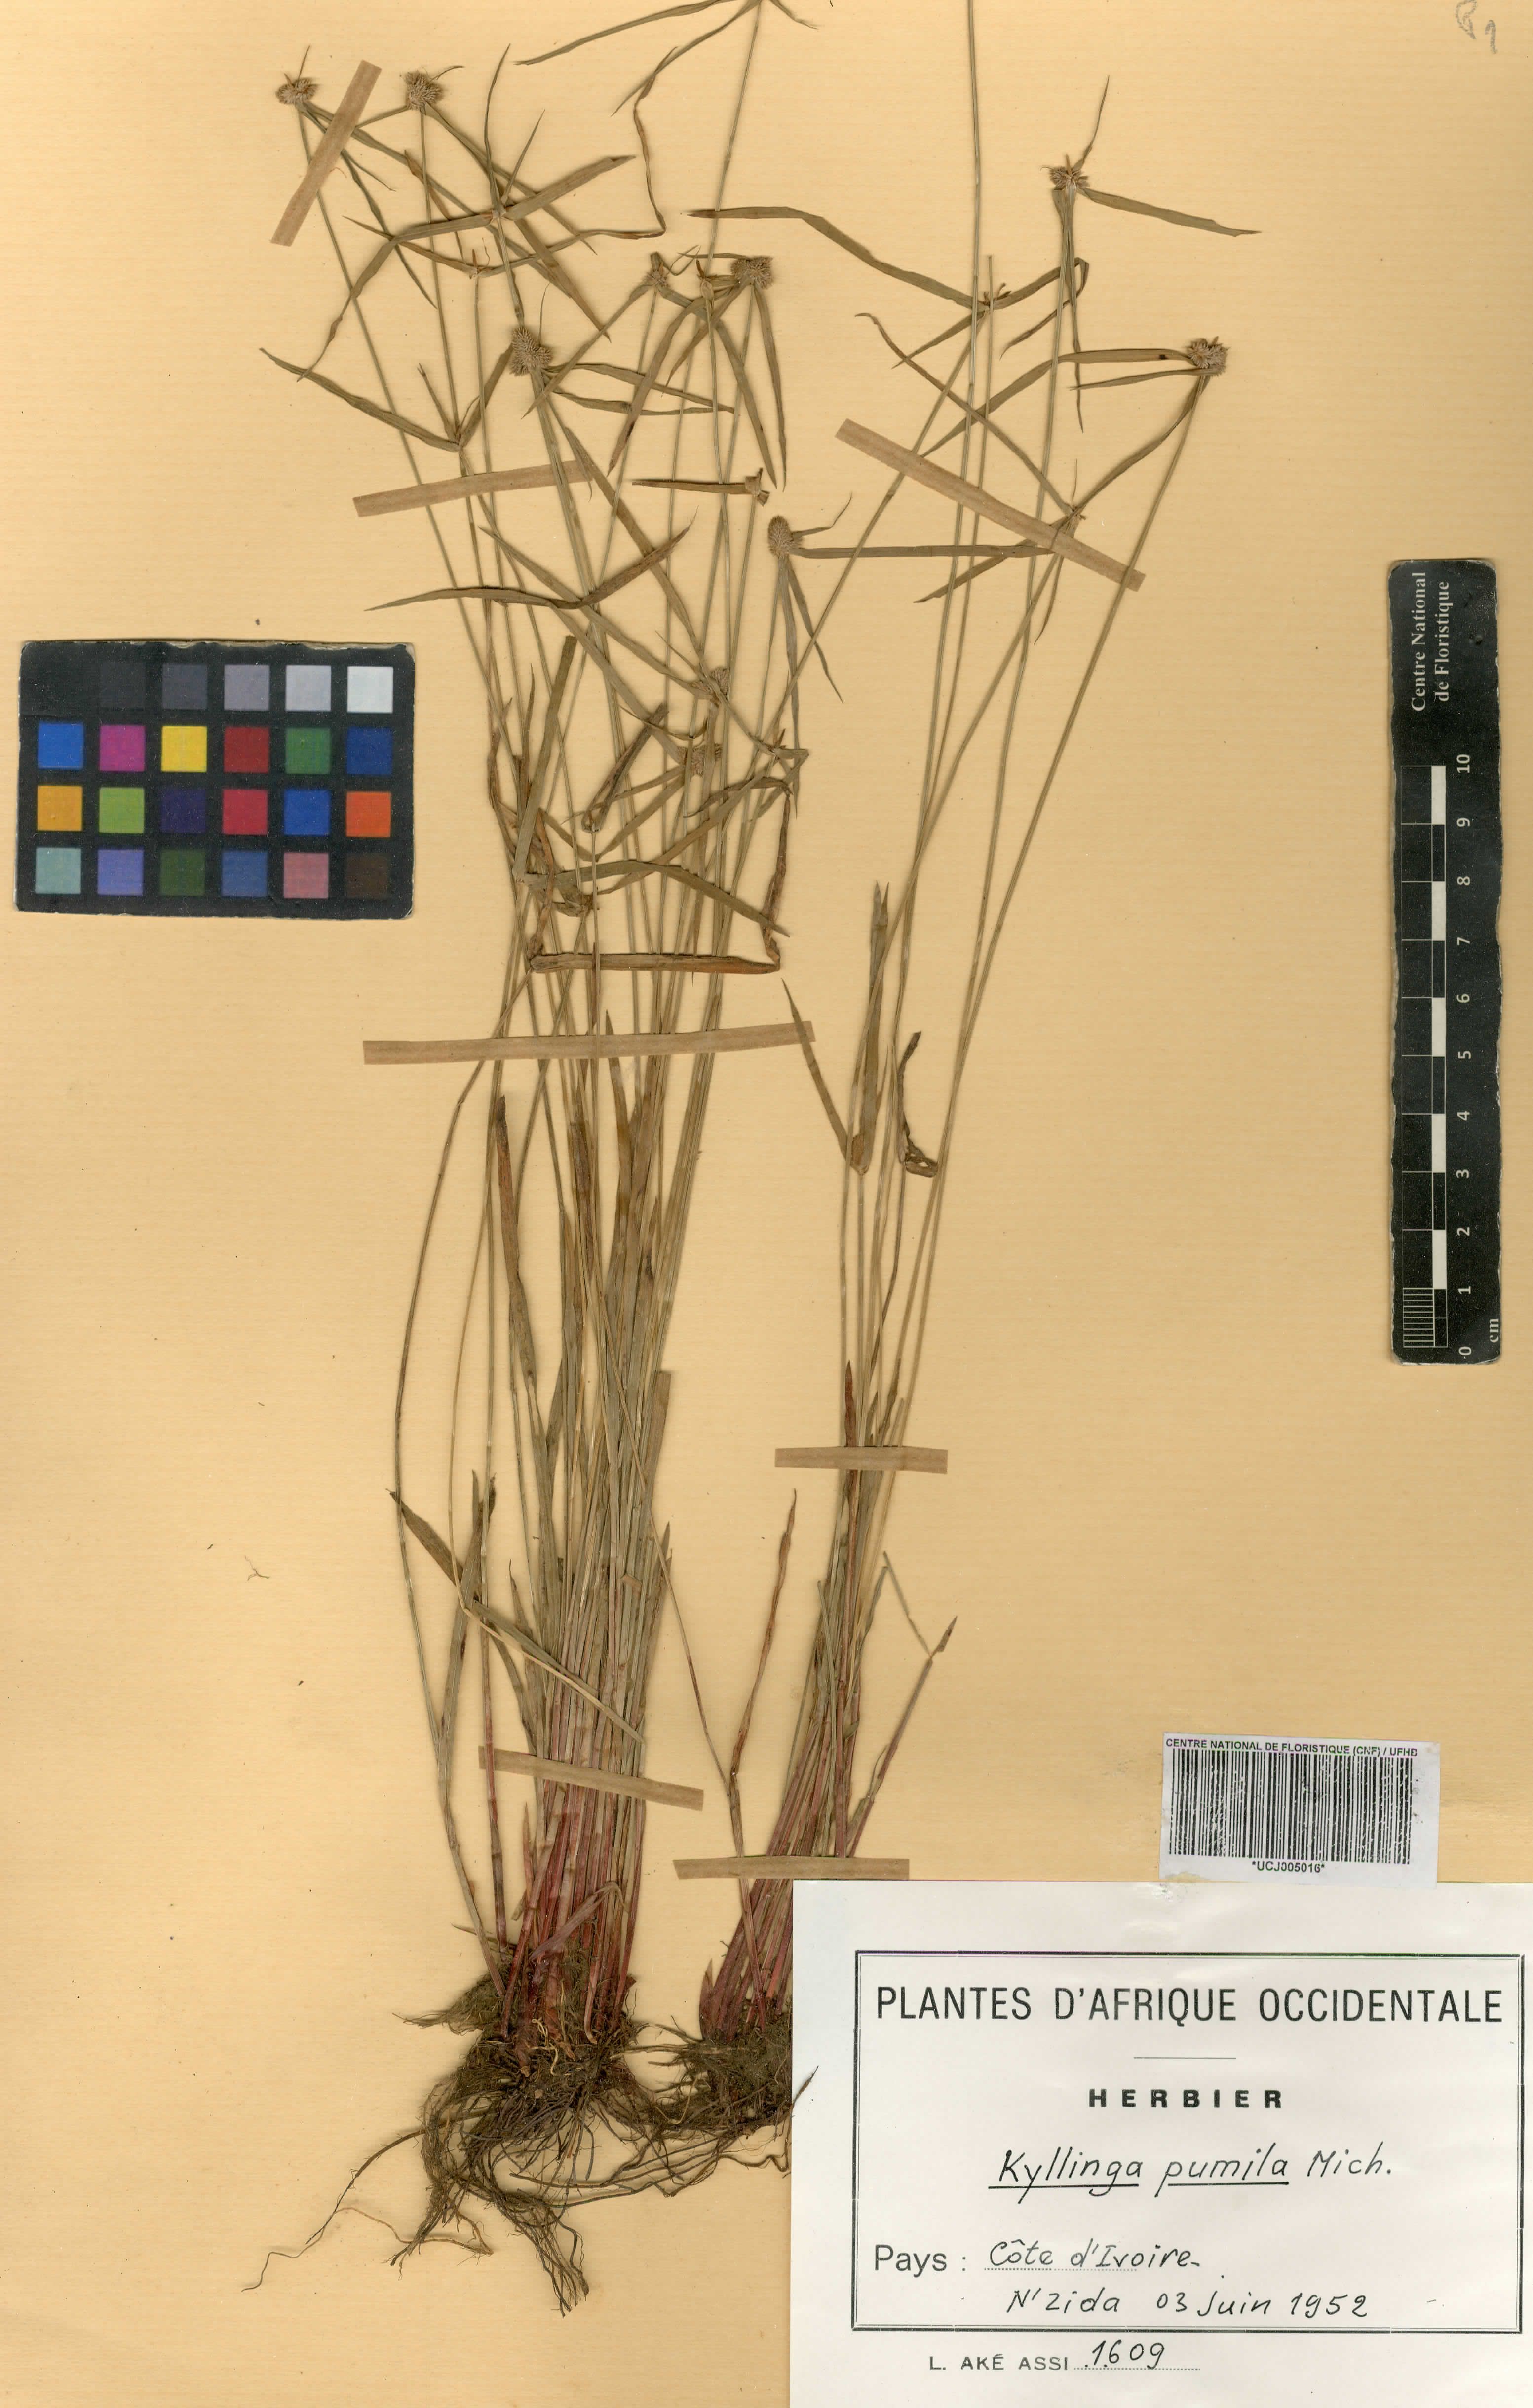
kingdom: Plantae
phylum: Tracheophyta
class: Liliopsida
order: Poales
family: Cyperaceae
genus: Cyperus
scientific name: Cyperus hortensis
